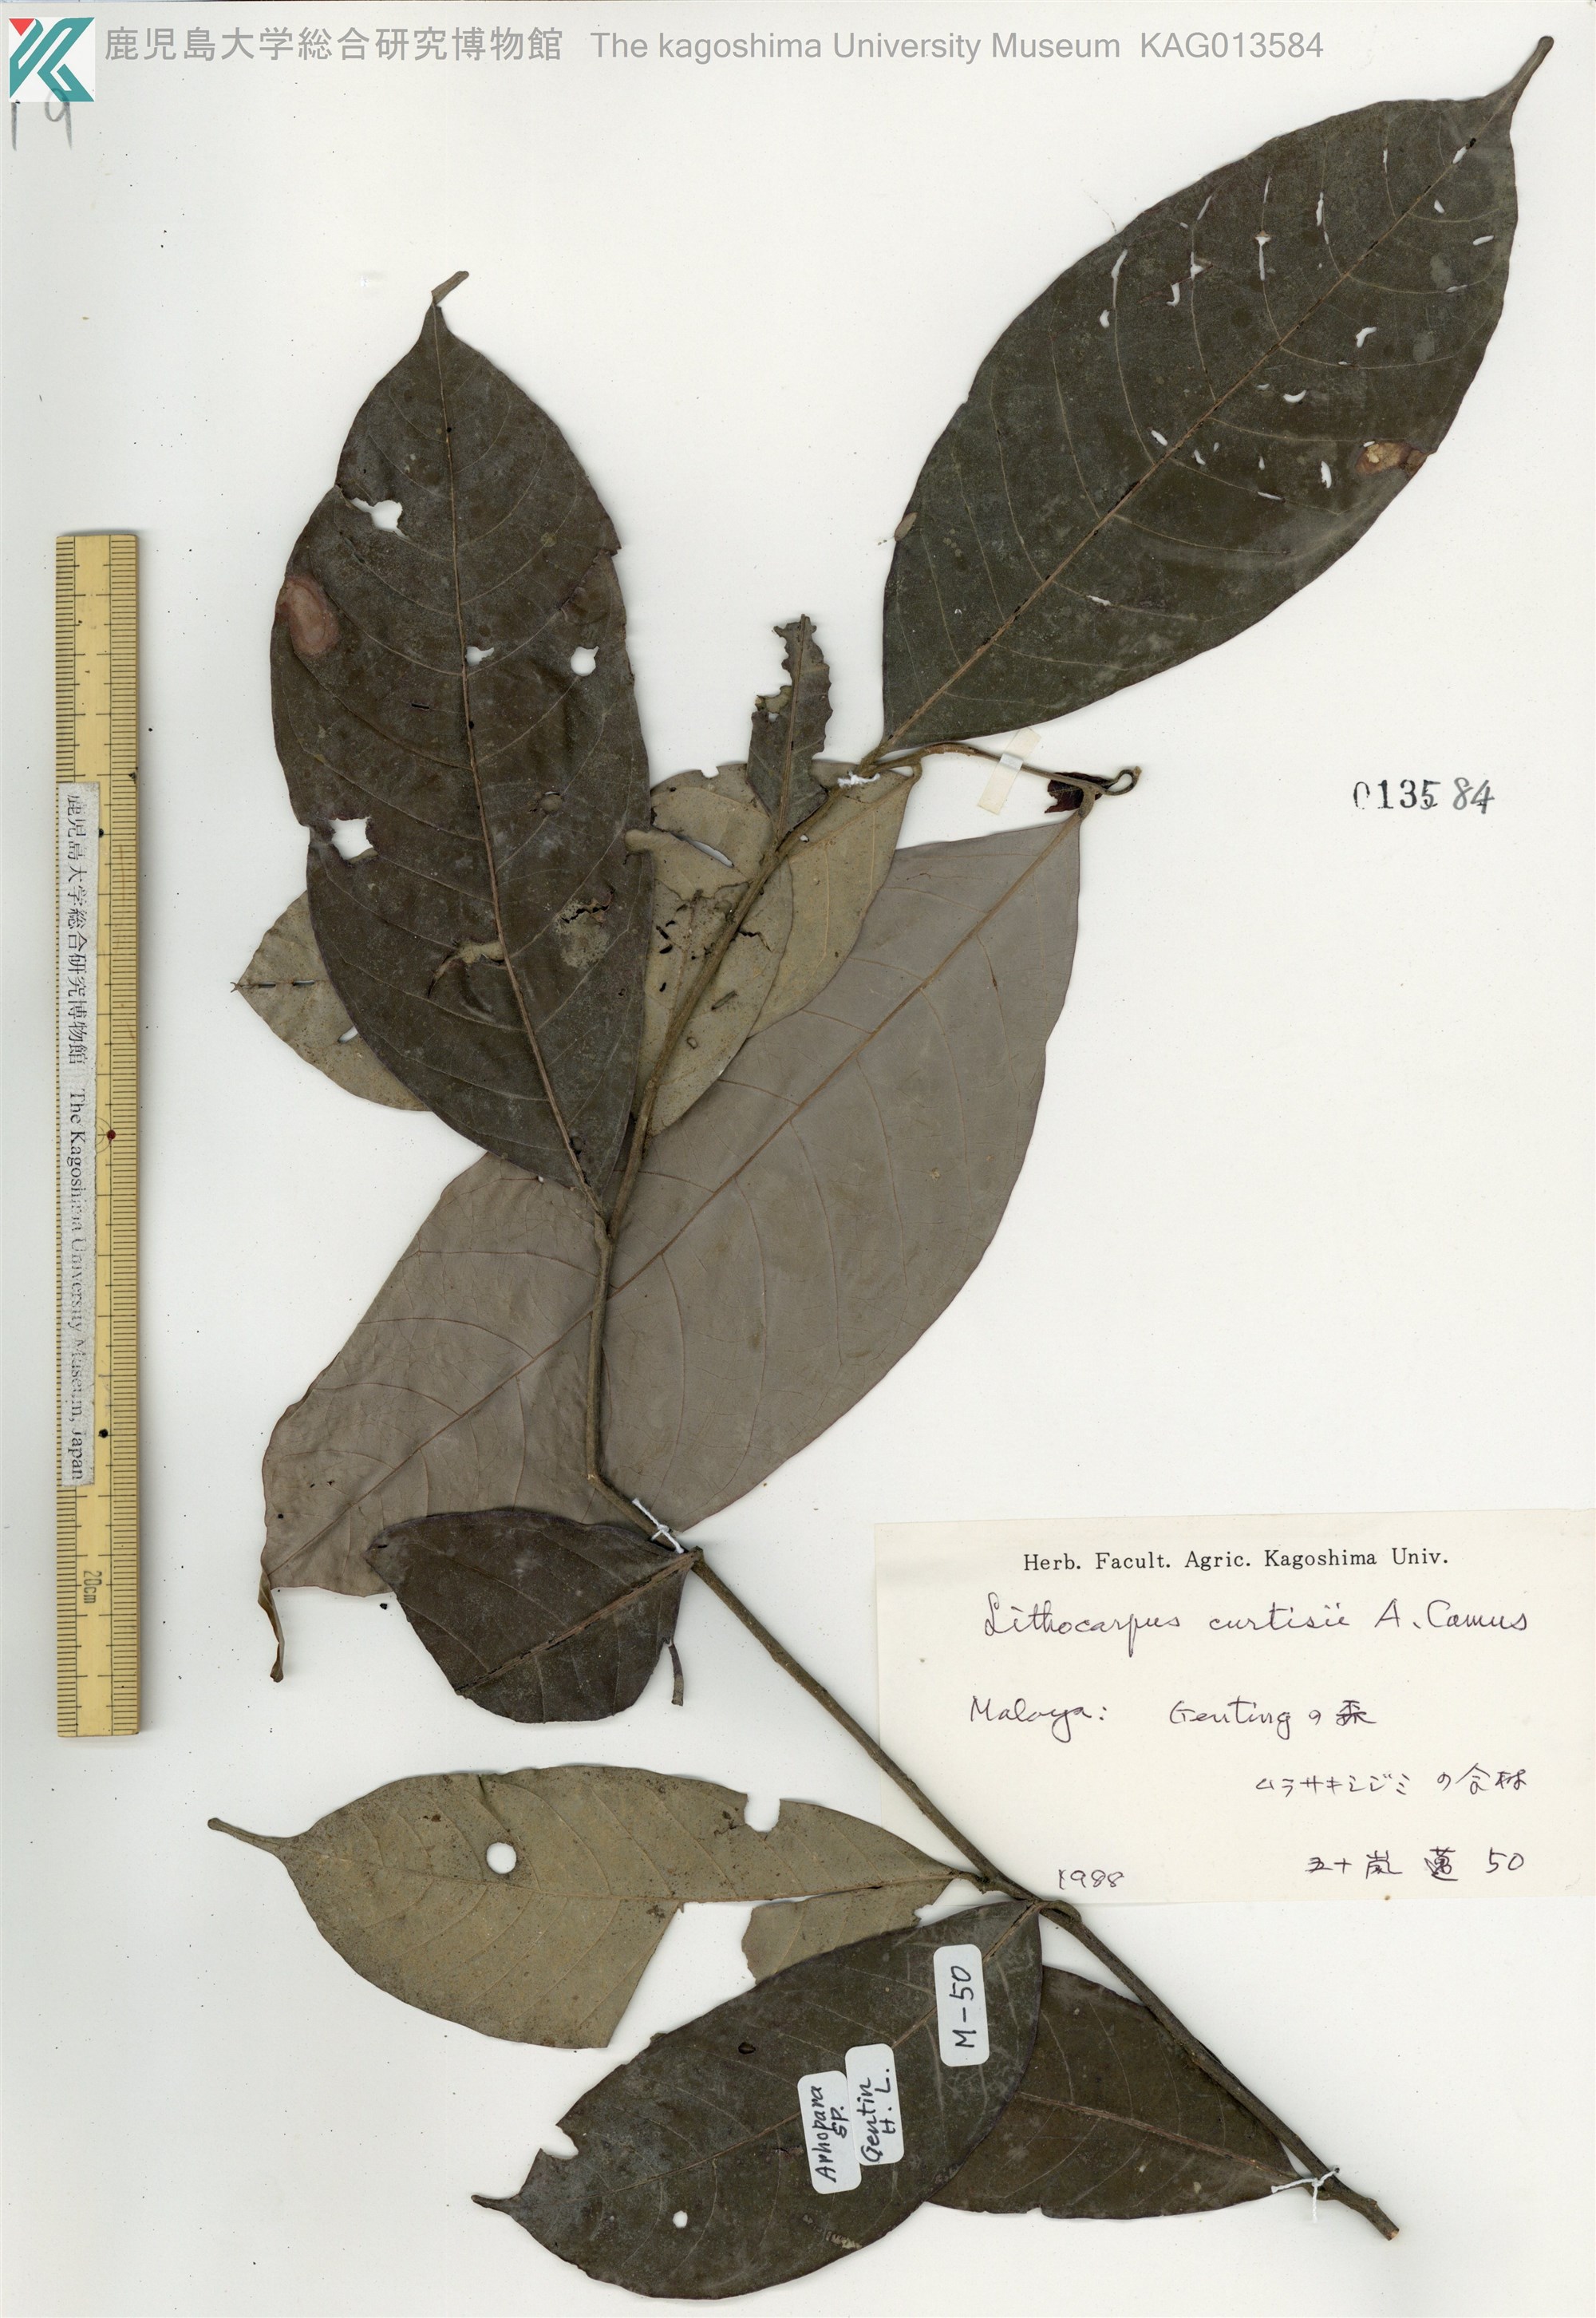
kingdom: Plantae
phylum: Tracheophyta
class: Magnoliopsida
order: Fagales
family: Fagaceae
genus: Lithocarpus
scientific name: Lithocarpus curtisii
